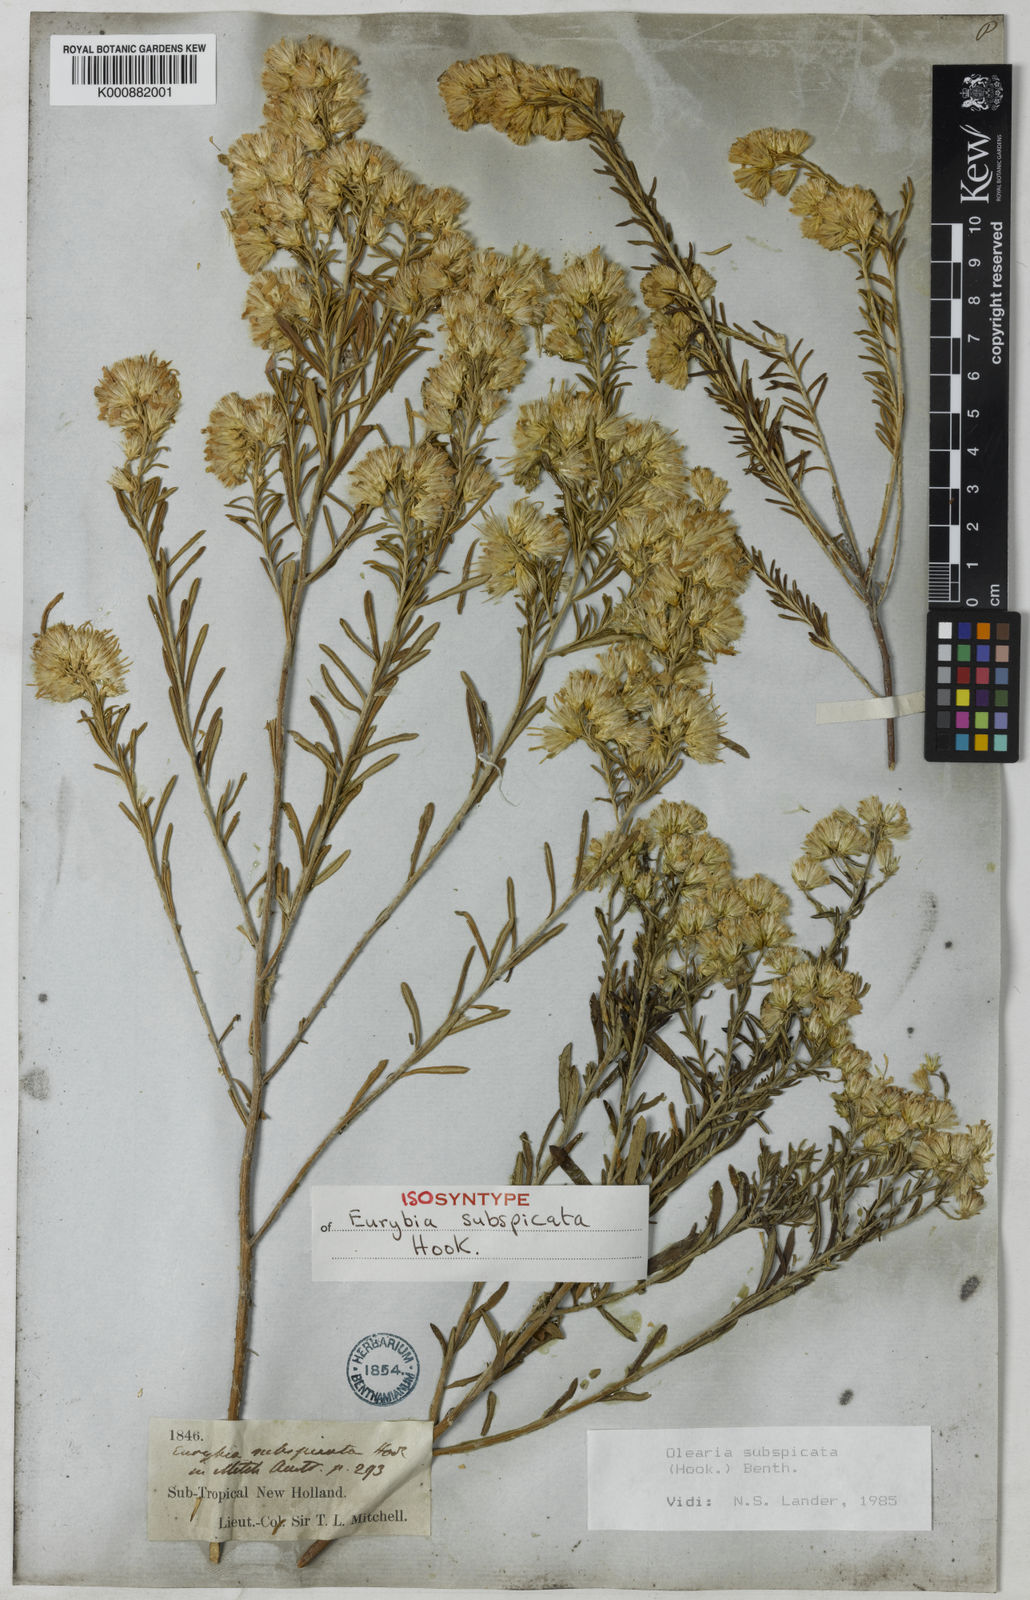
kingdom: Plantae
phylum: Tracheophyta
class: Magnoliopsida
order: Asterales
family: Asteraceae
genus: Olearia
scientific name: Olearia subspicata
